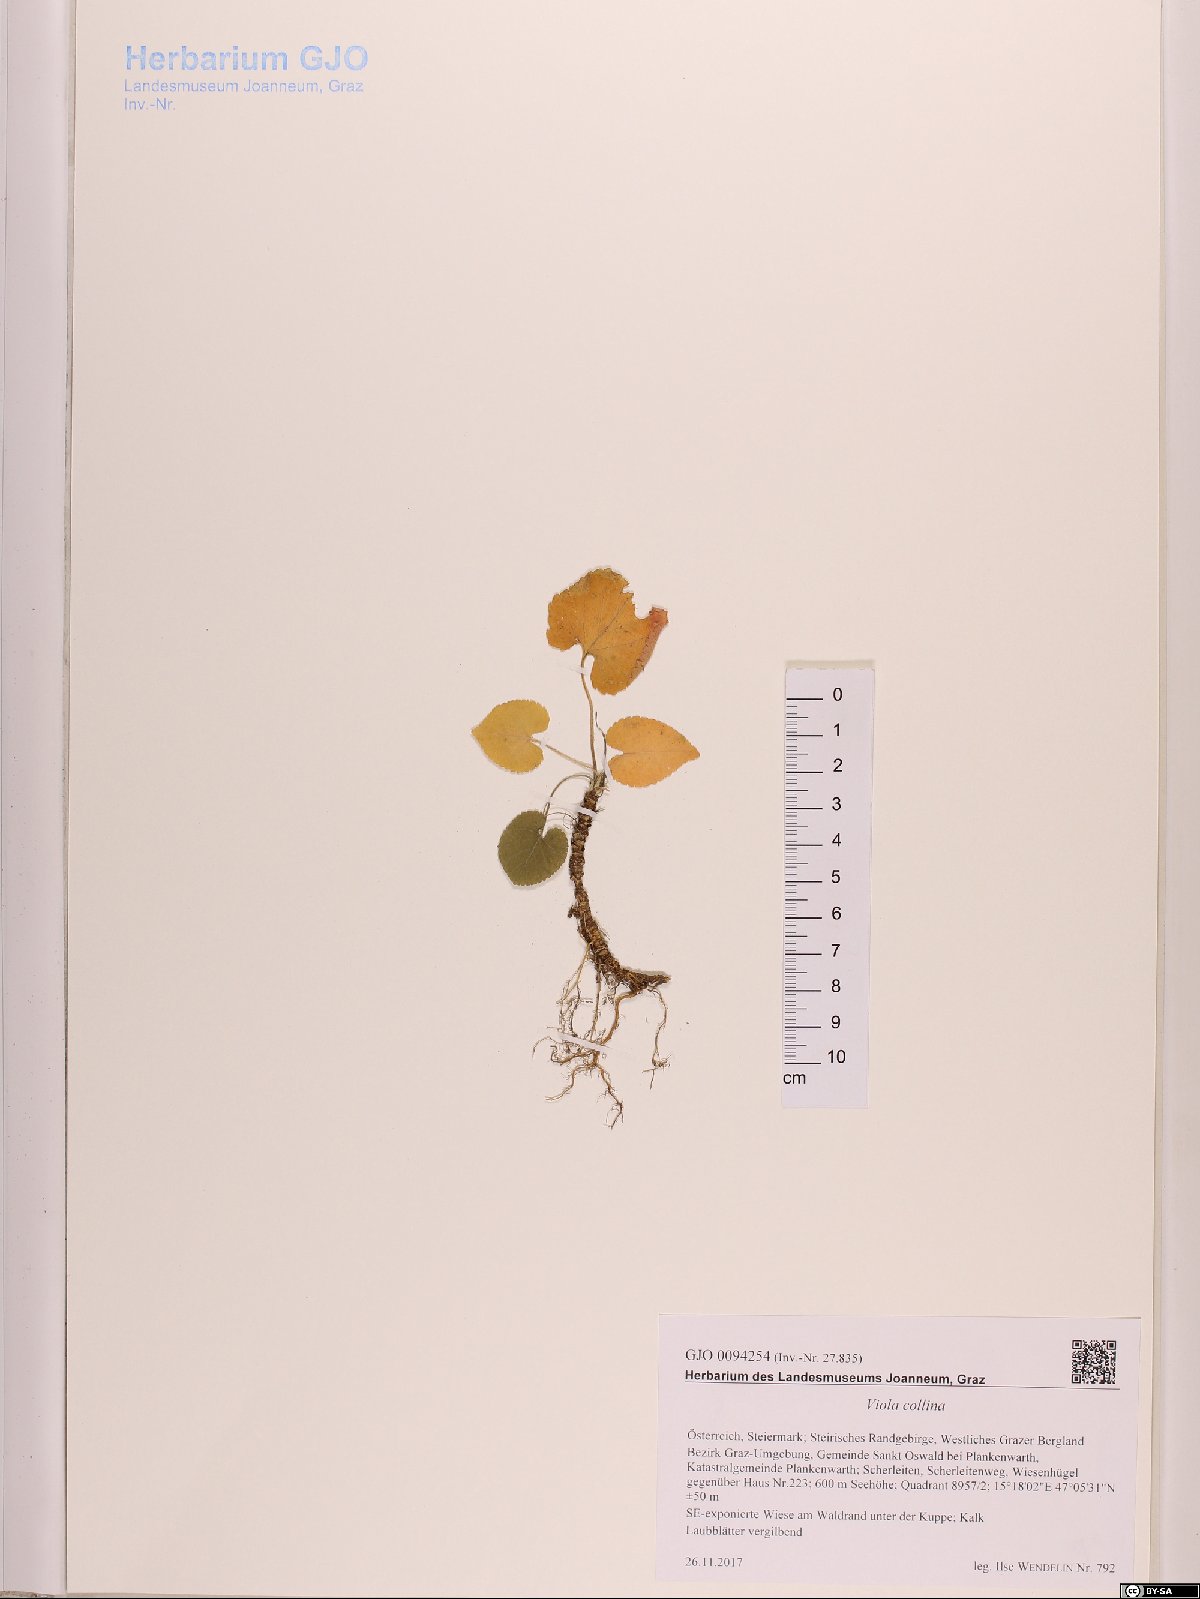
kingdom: Plantae
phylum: Tracheophyta
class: Magnoliopsida
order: Malpighiales
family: Violaceae
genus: Viola
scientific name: Viola collina
